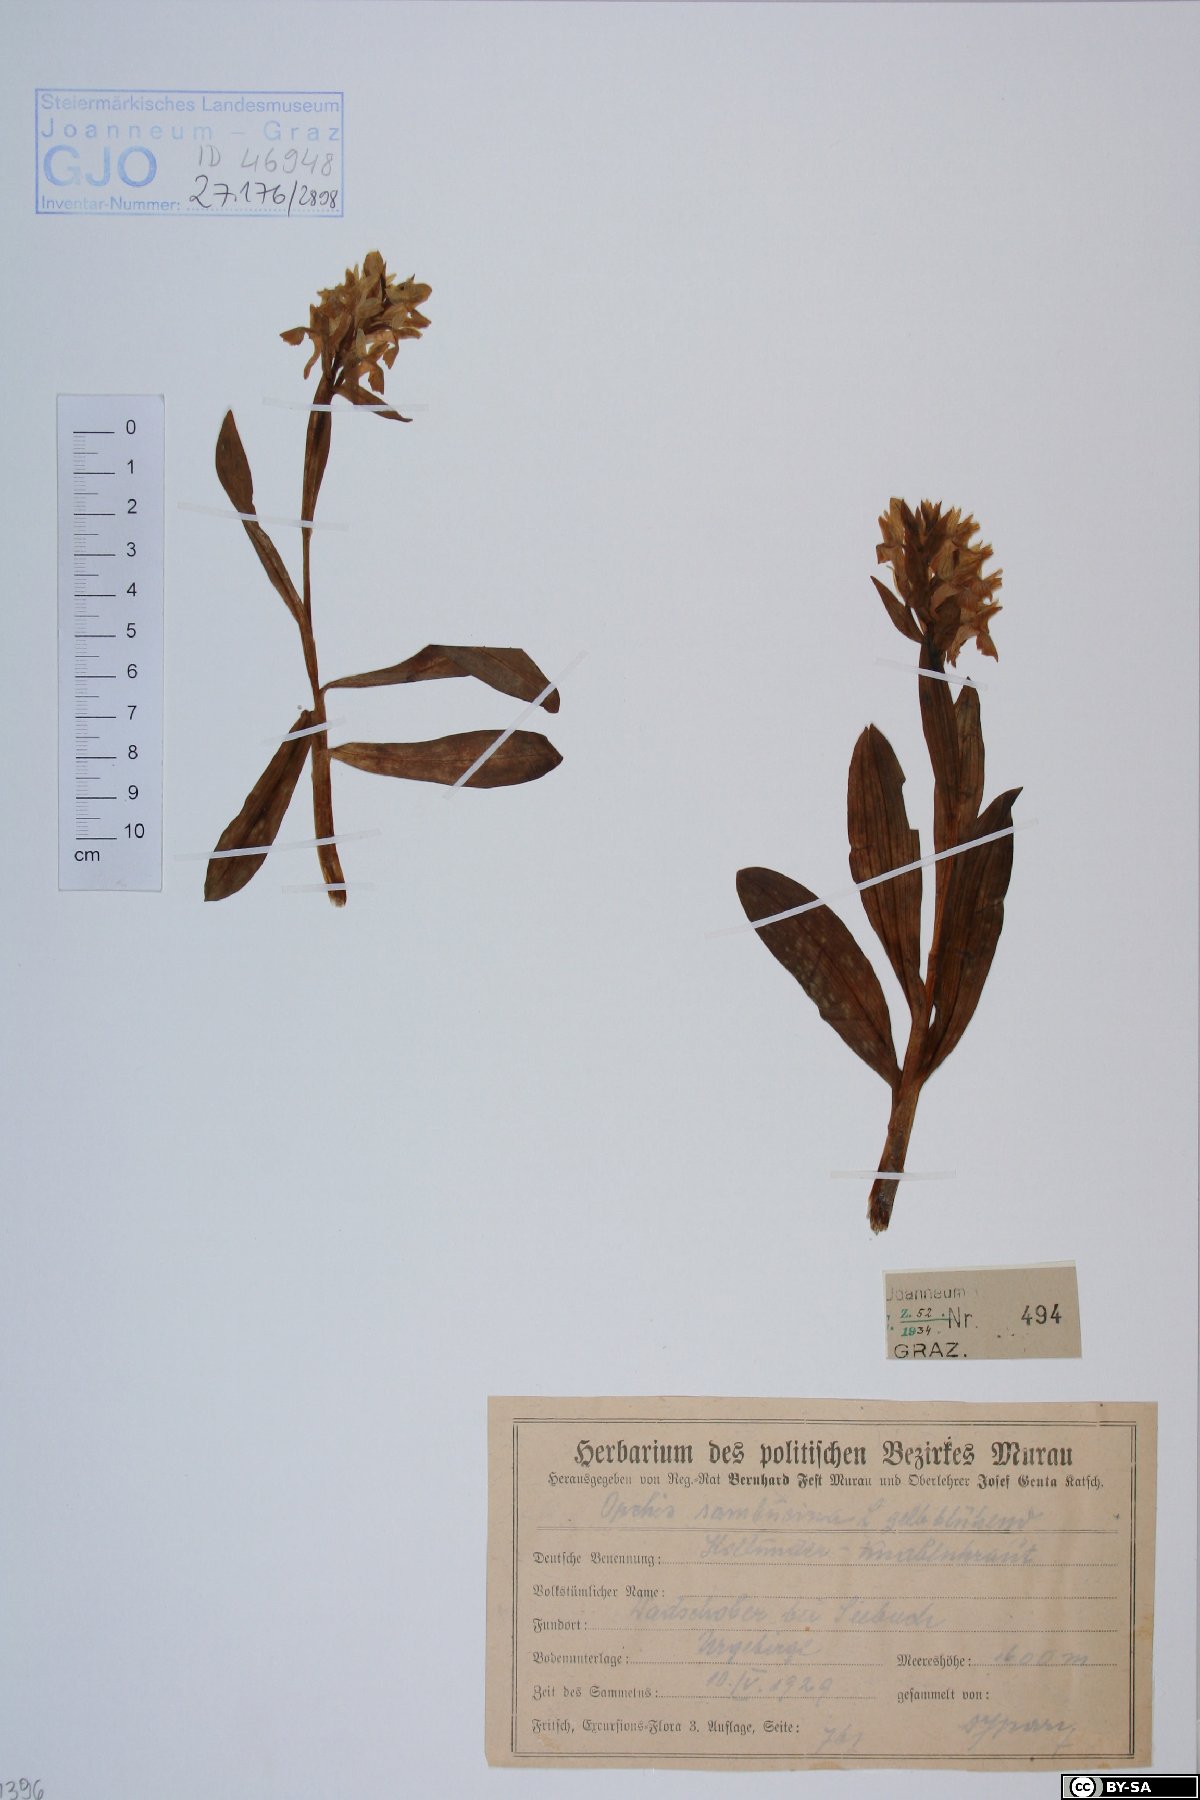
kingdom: Plantae
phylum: Tracheophyta
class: Liliopsida
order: Asparagales
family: Orchidaceae
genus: Dactylorhiza
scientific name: Dactylorhiza sambucina
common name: Elder-flowered orchid
